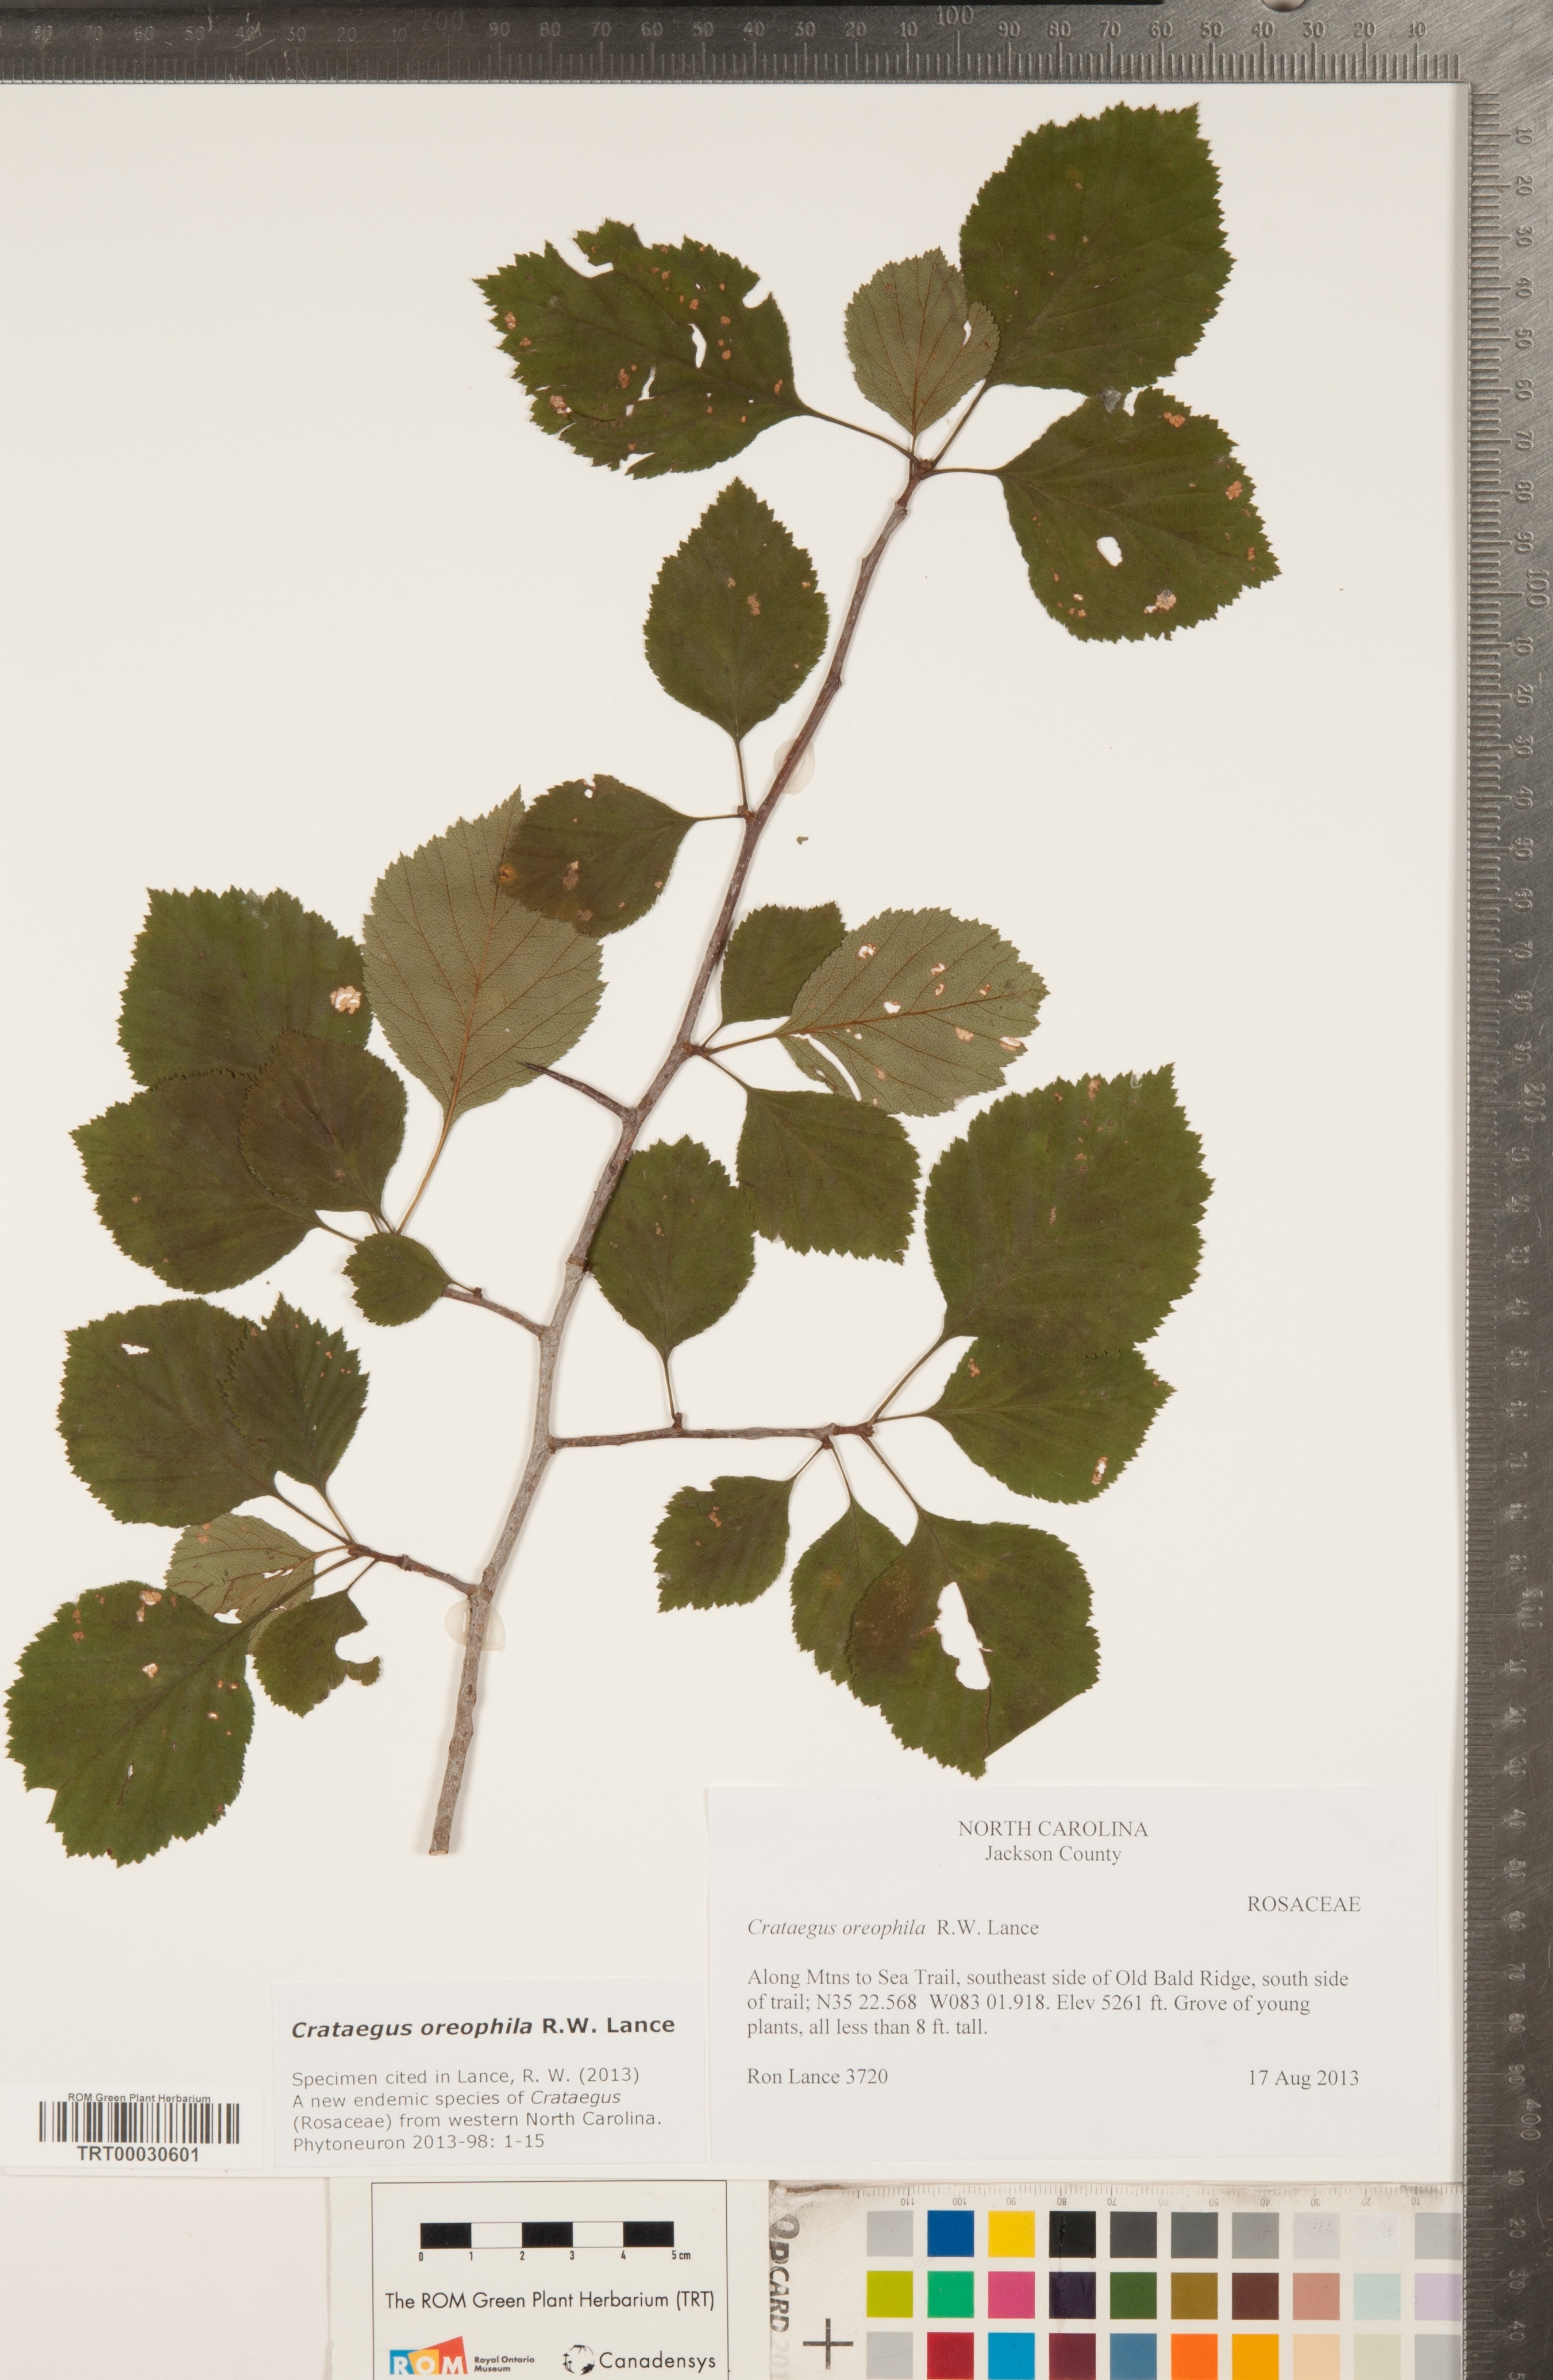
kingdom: Plantae
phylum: Tracheophyta
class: Magnoliopsida
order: Rosales
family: Rosaceae
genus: Crataegus
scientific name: Crataegus oreophila
